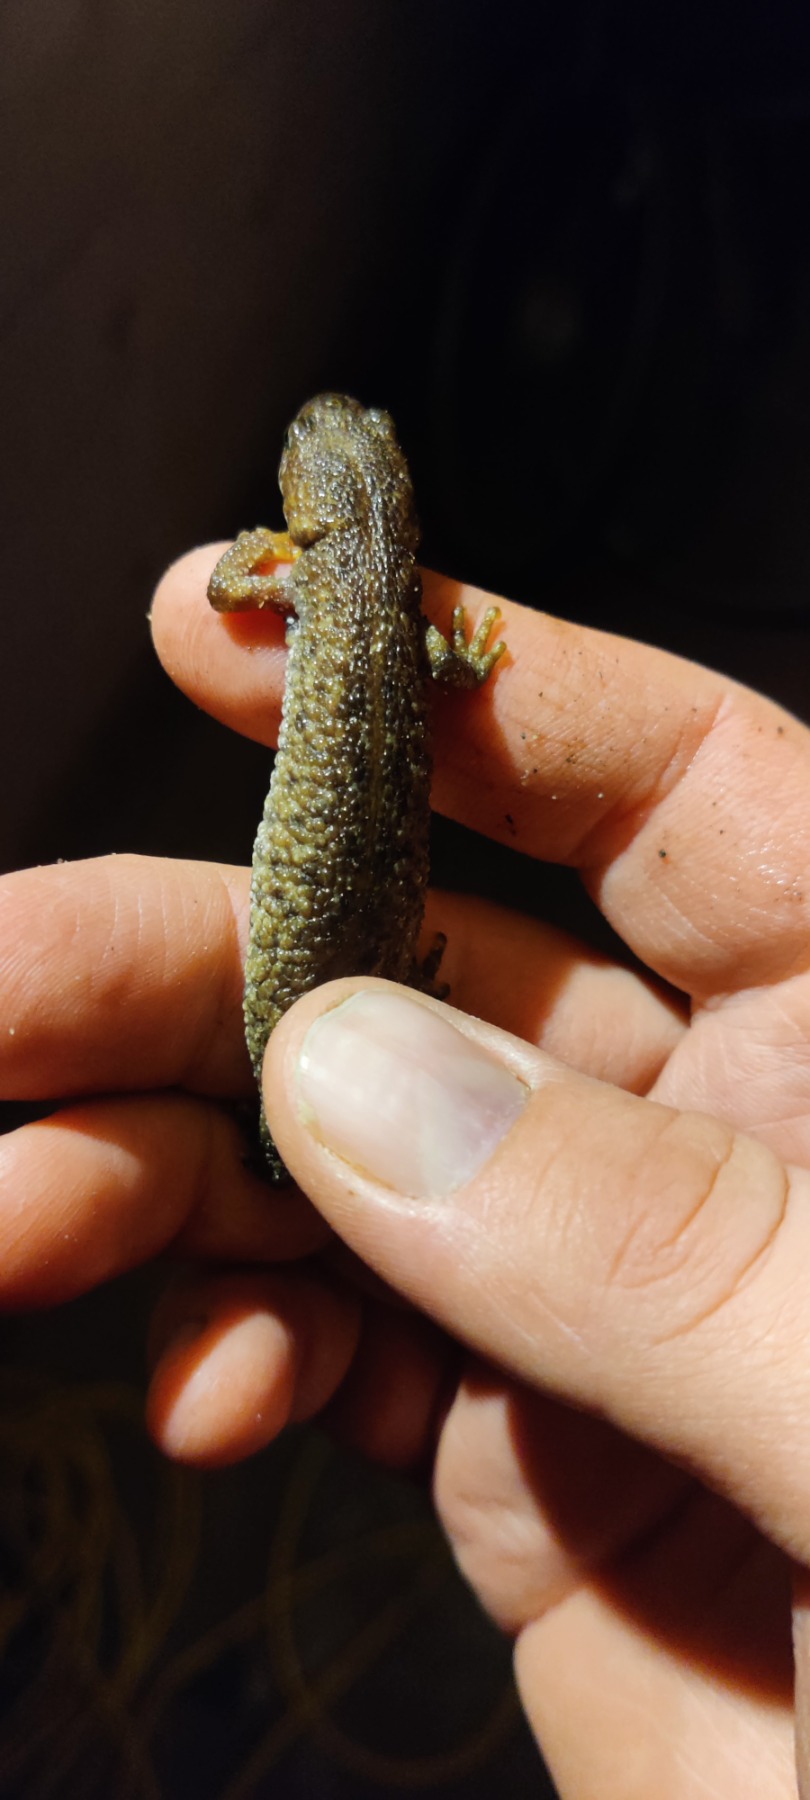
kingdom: Animalia
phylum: Chordata
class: Amphibia
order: Caudata
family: Salamandridae
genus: Triturus
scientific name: Triturus cristatus
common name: Stor vandsalamander
